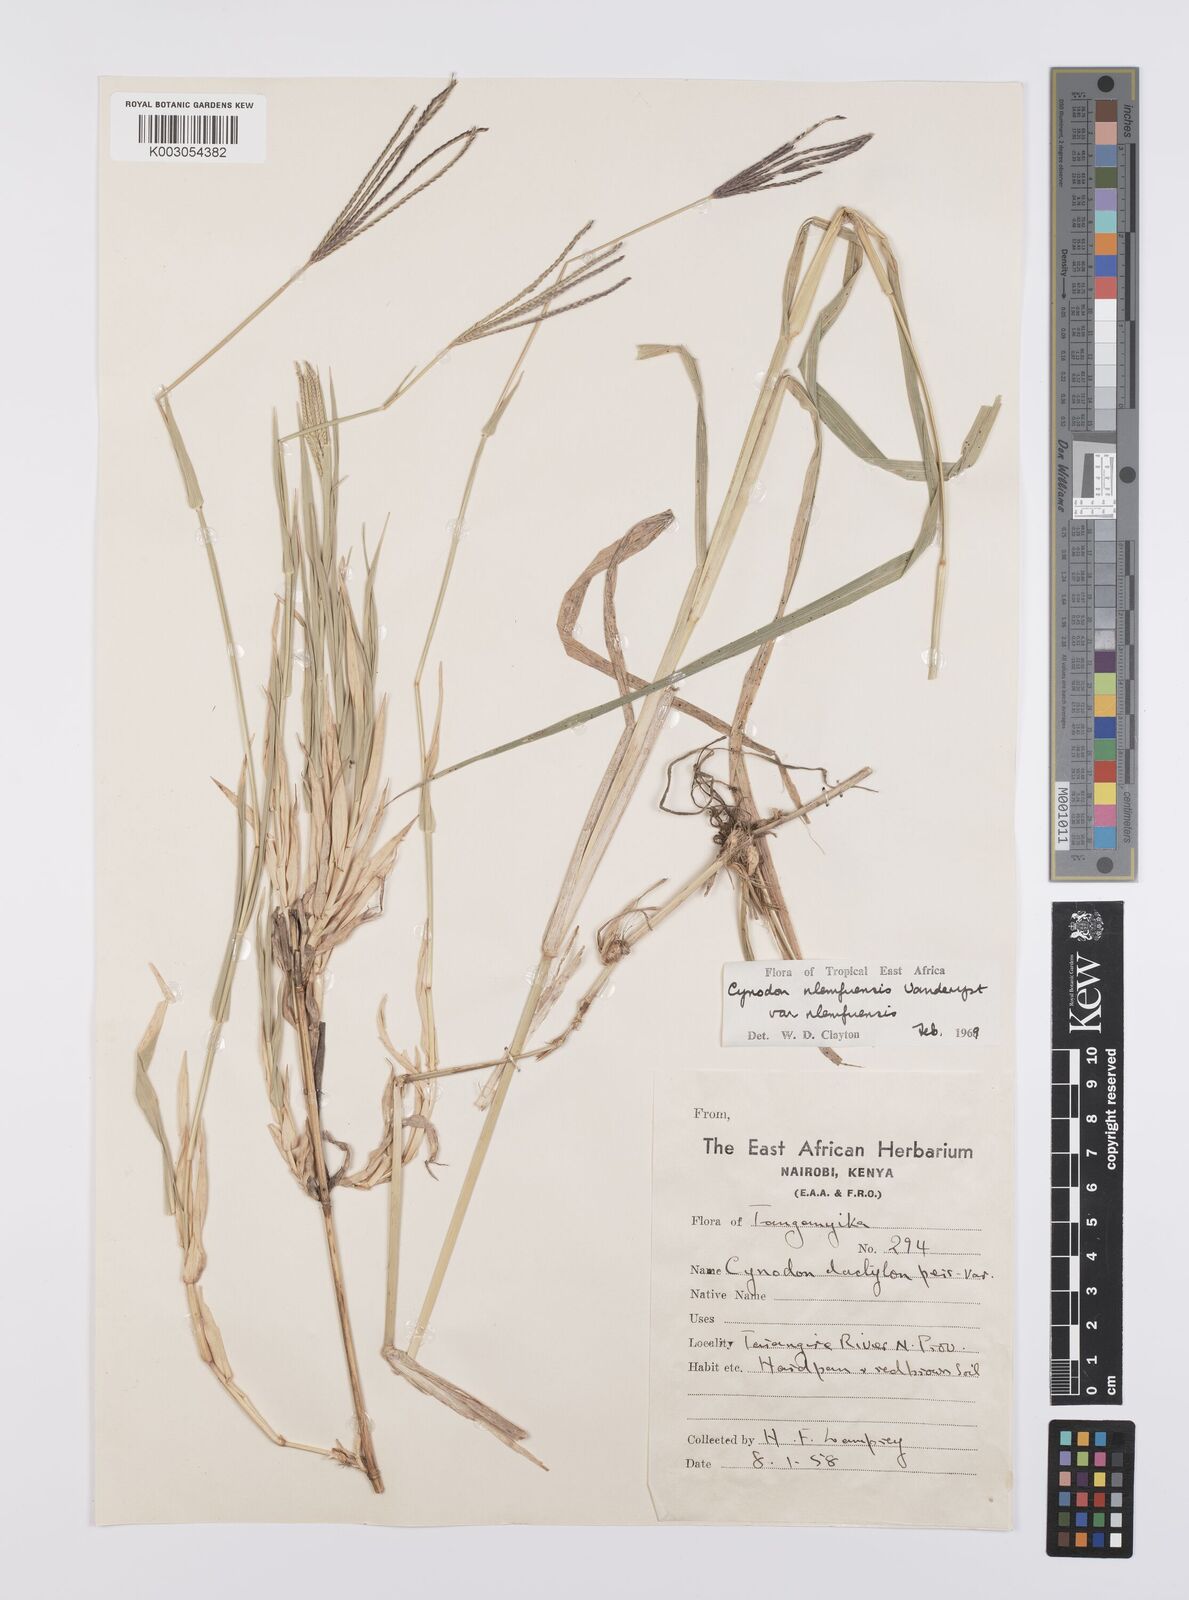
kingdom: Plantae
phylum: Tracheophyta
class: Liliopsida
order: Poales
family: Poaceae
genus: Cynodon
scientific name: Cynodon nlemfuensis
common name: African bermudagrass
